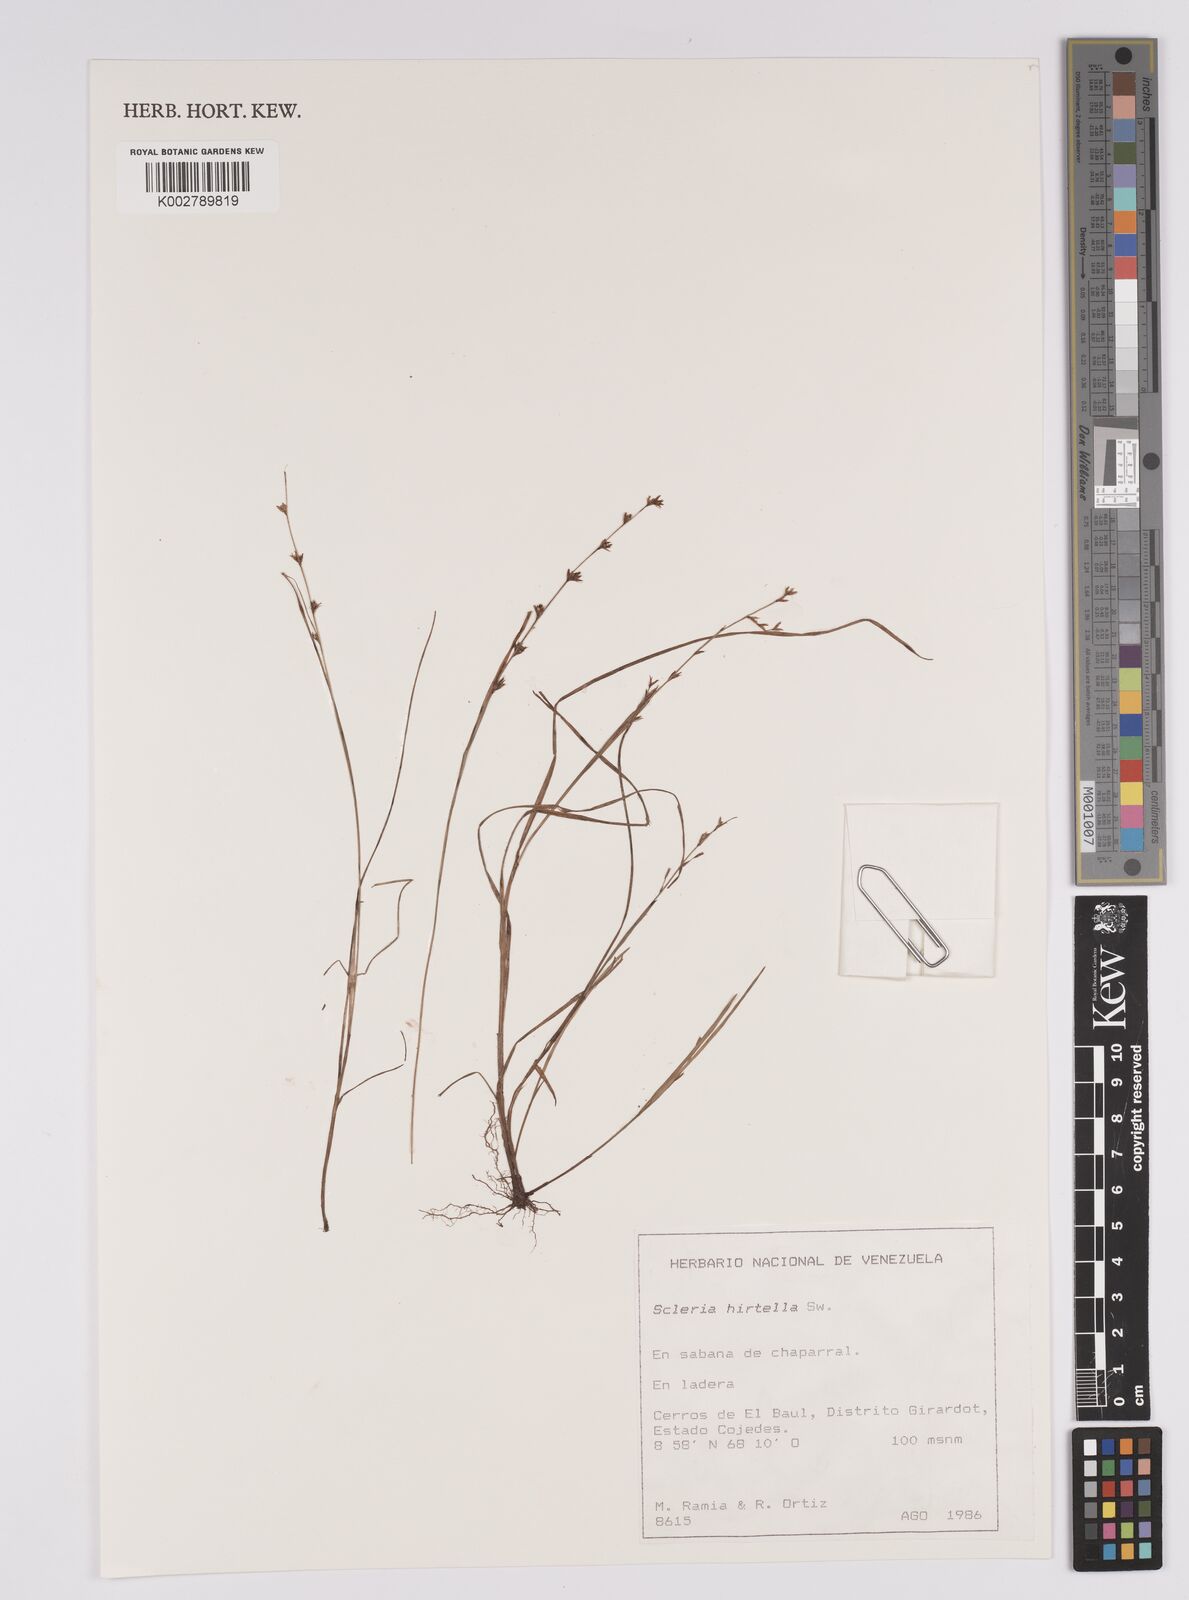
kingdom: Plantae
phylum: Tracheophyta
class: Liliopsida
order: Poales
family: Cyperaceae
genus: Scleria
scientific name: Scleria distans
